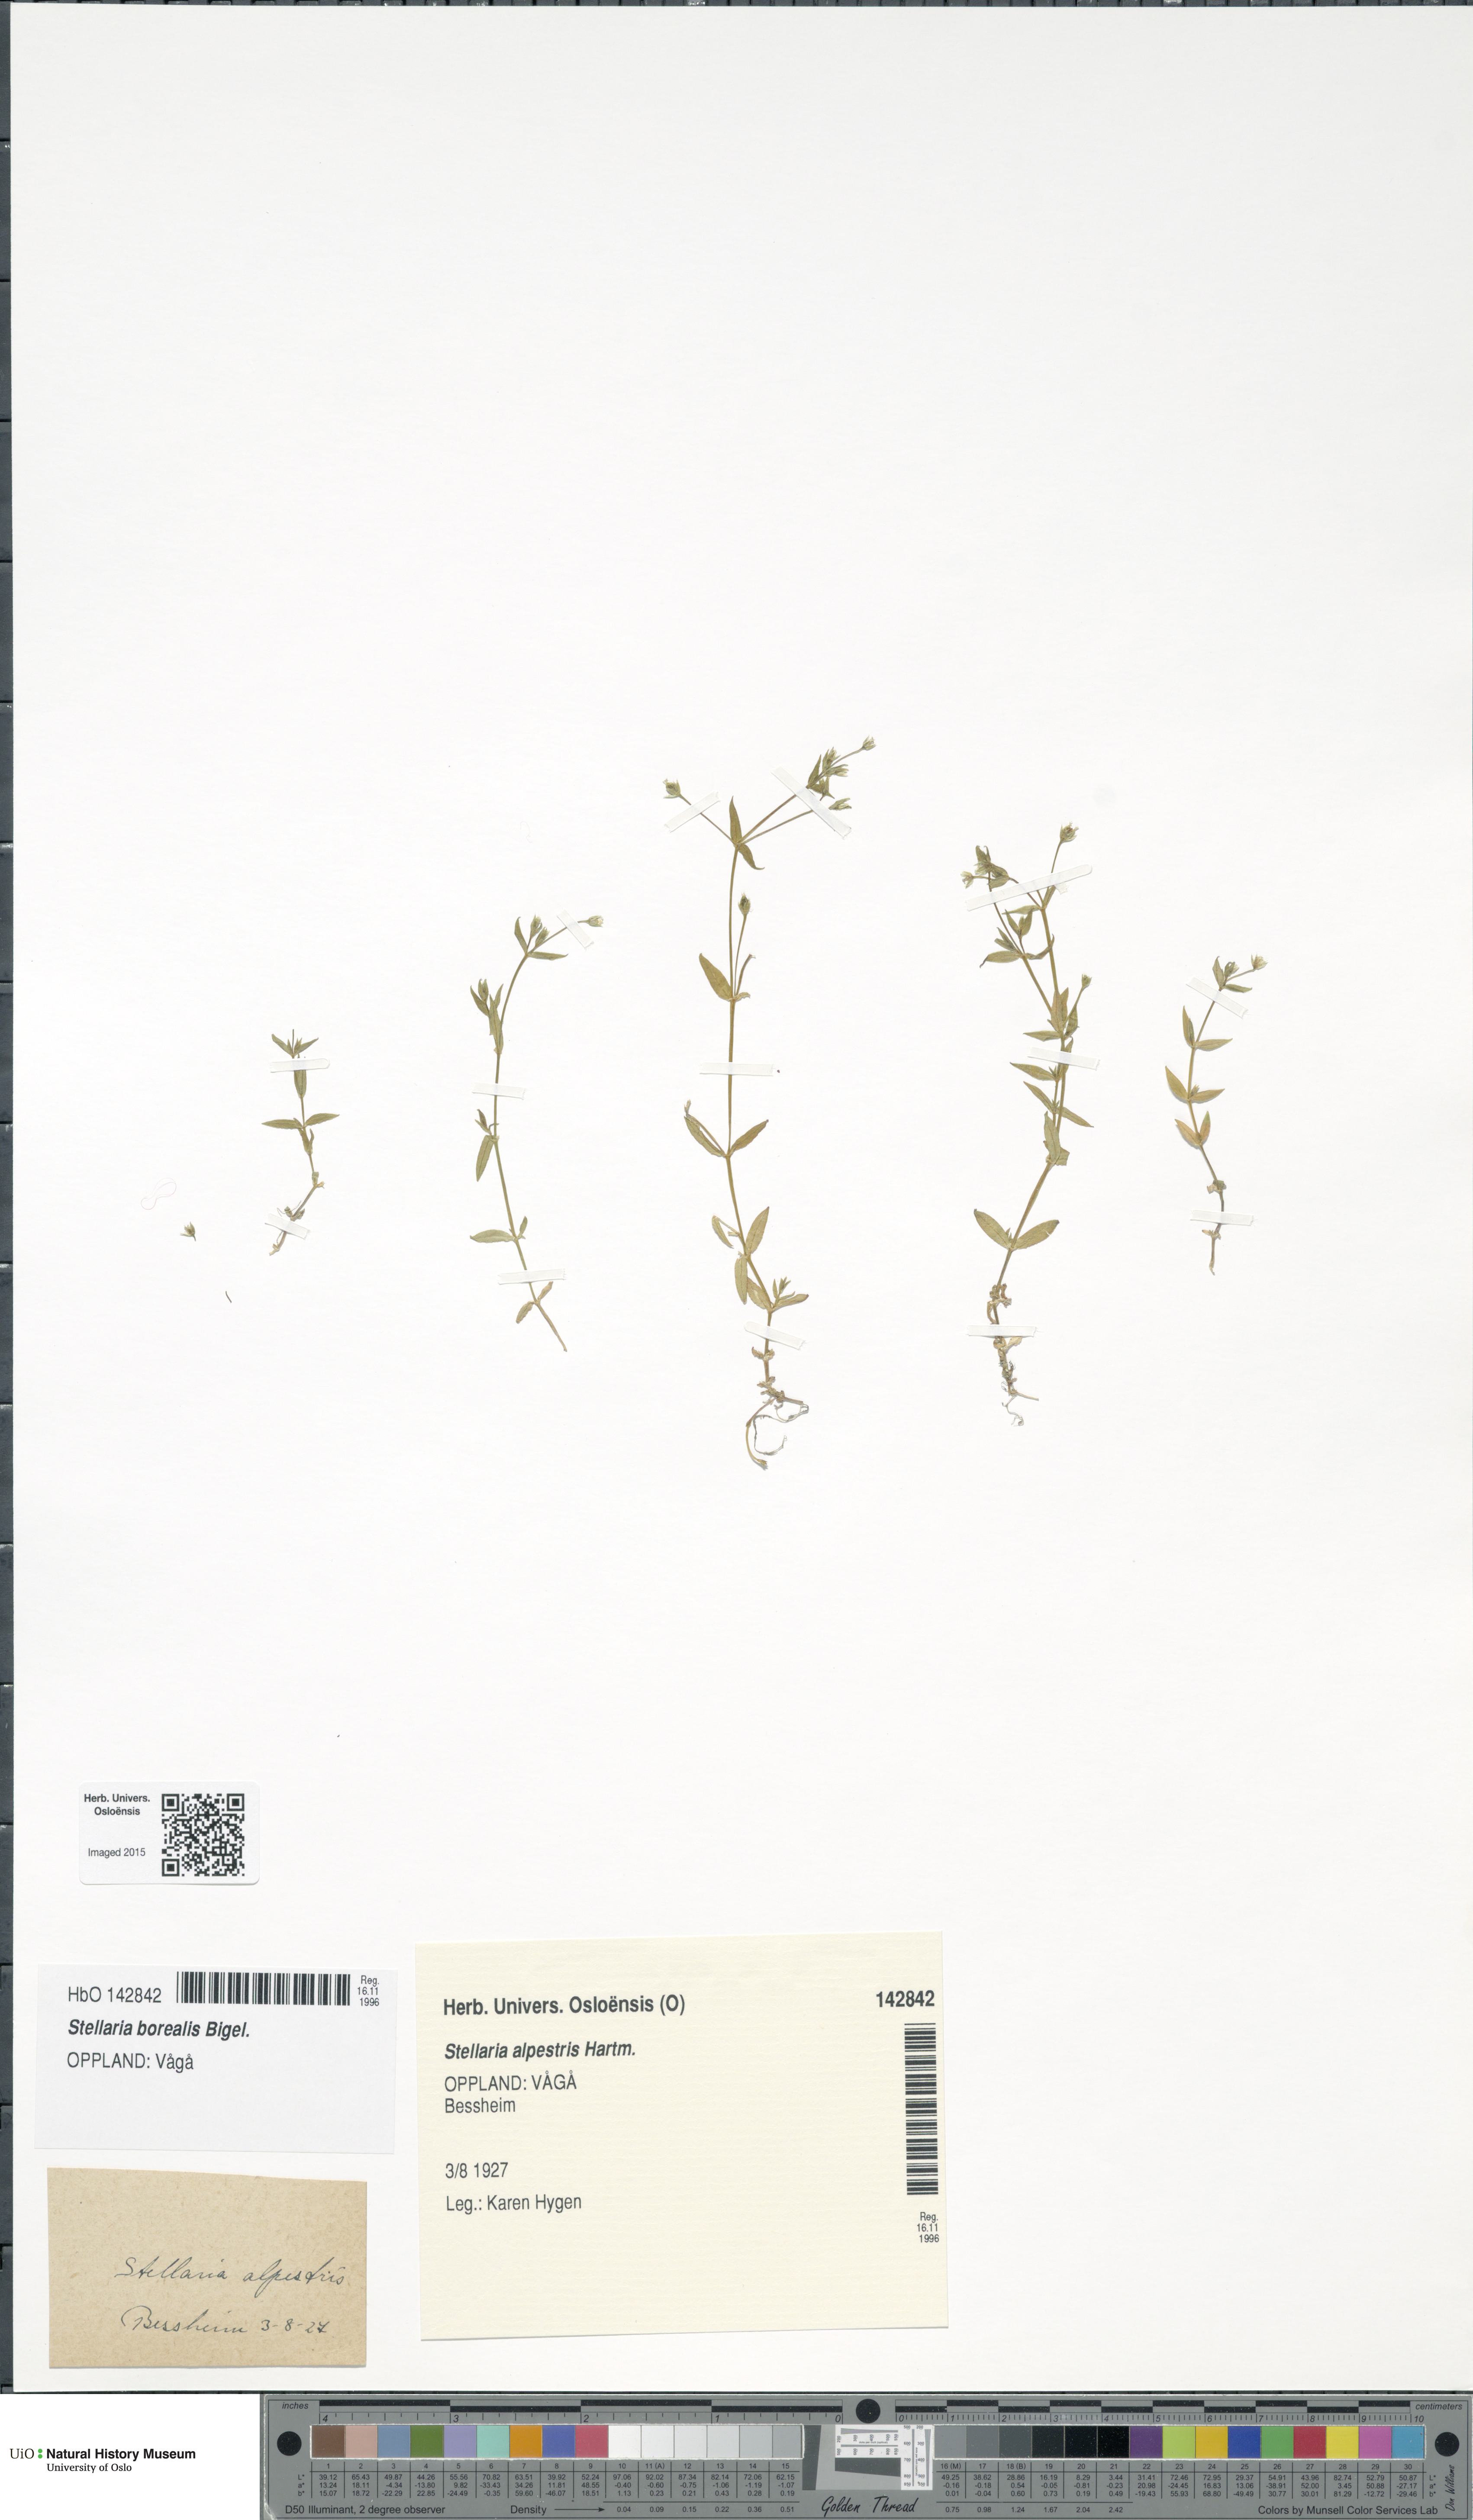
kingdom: Plantae
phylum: Tracheophyta
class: Magnoliopsida
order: Caryophyllales
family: Caryophyllaceae
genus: Stellaria
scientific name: Stellaria alpestris
